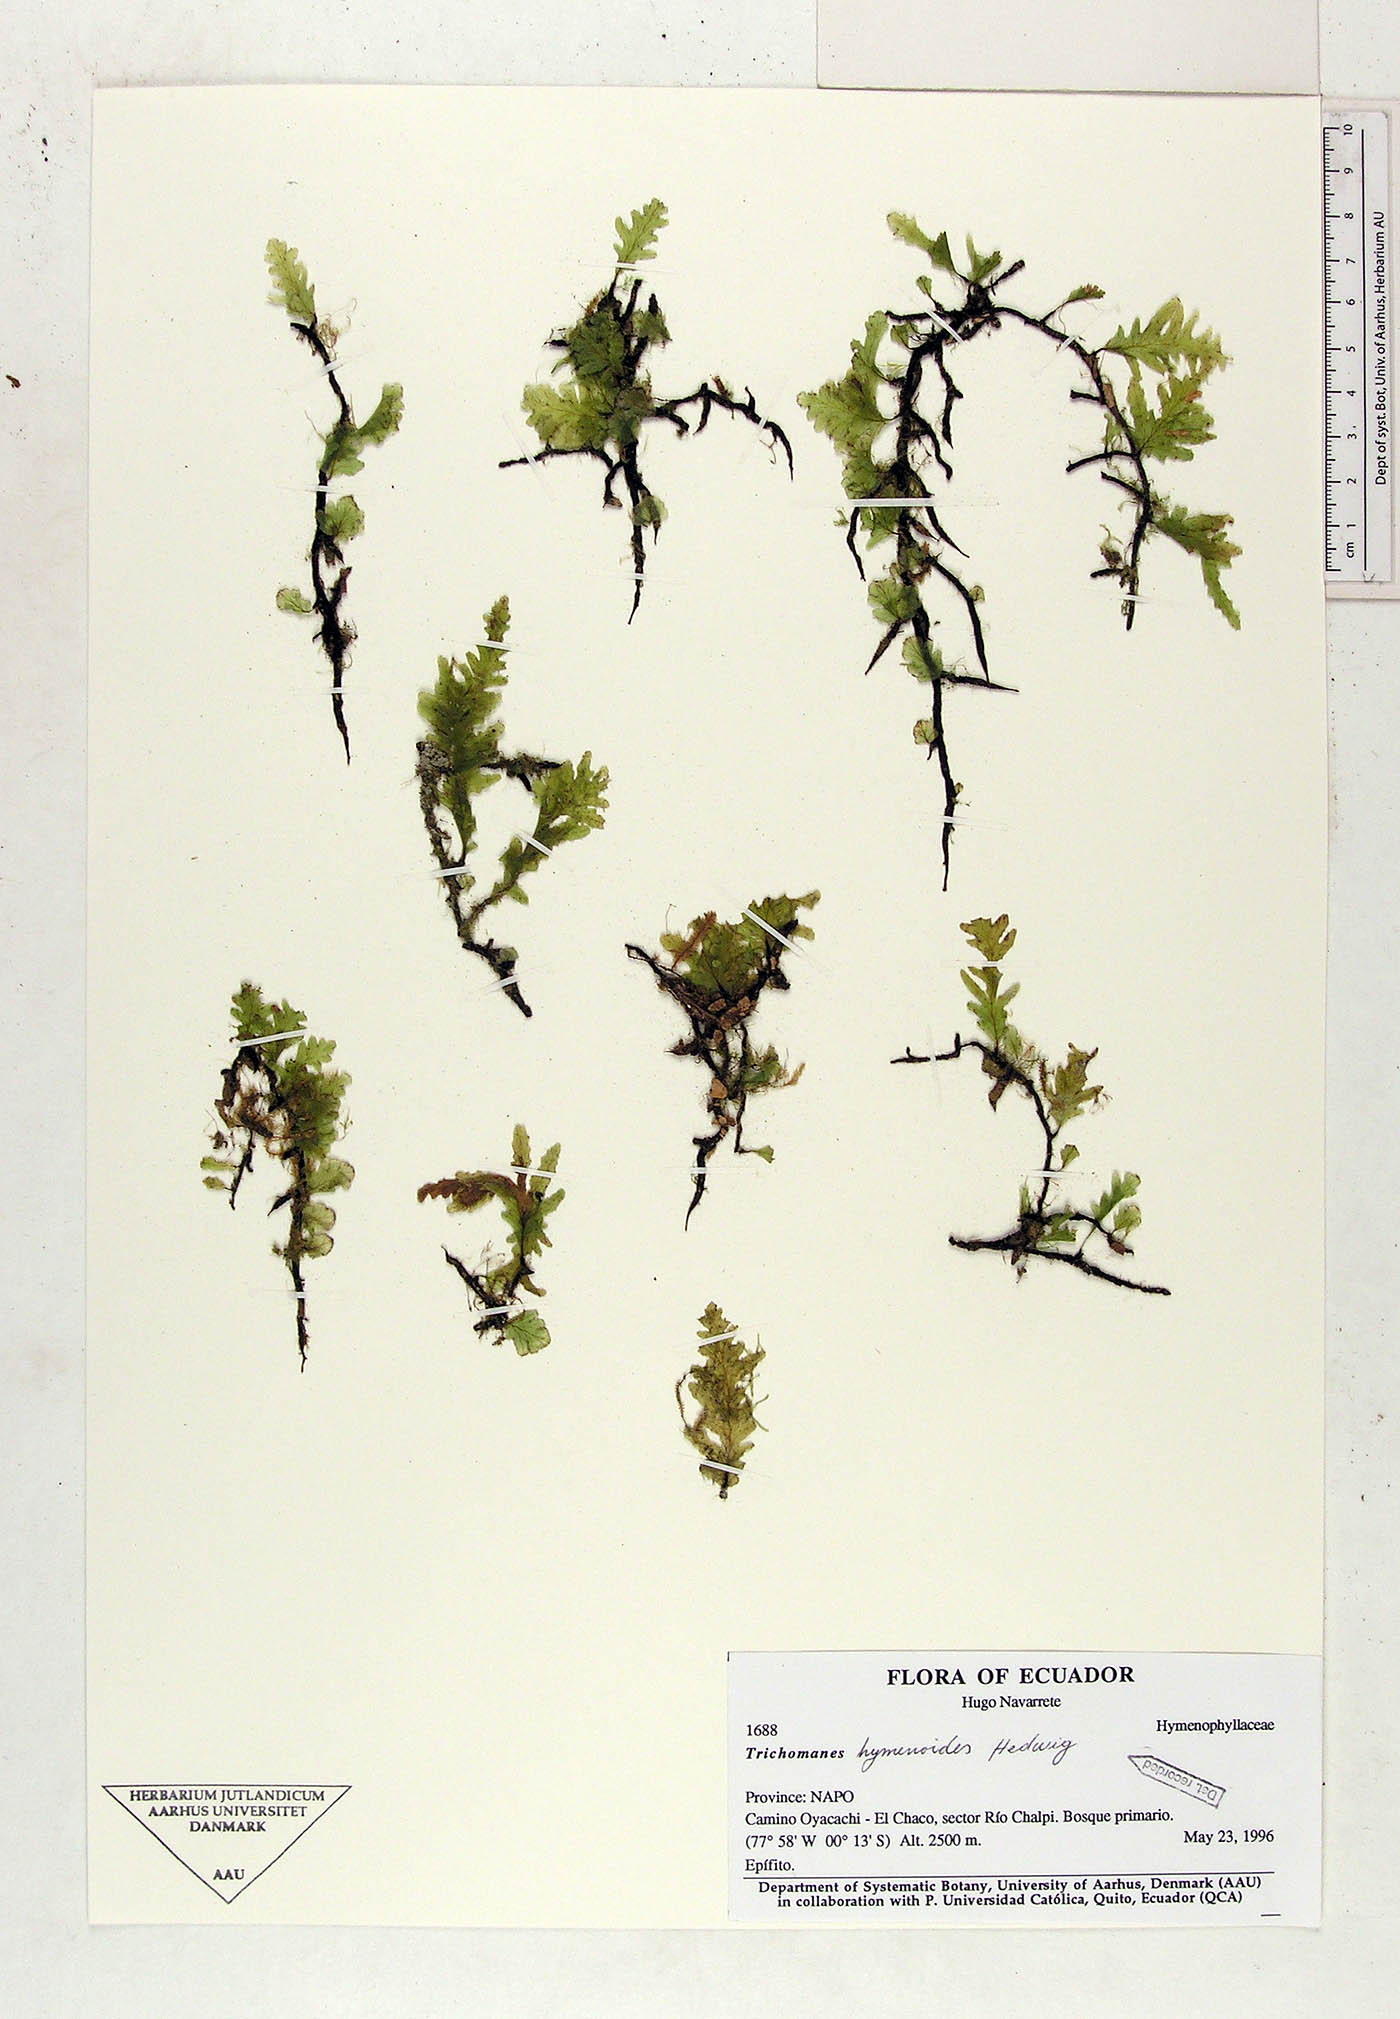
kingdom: Plantae
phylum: Tracheophyta
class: Polypodiopsida
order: Hymenophyllales
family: Hymenophyllaceae
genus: Trichomanes
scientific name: Trichomanes
